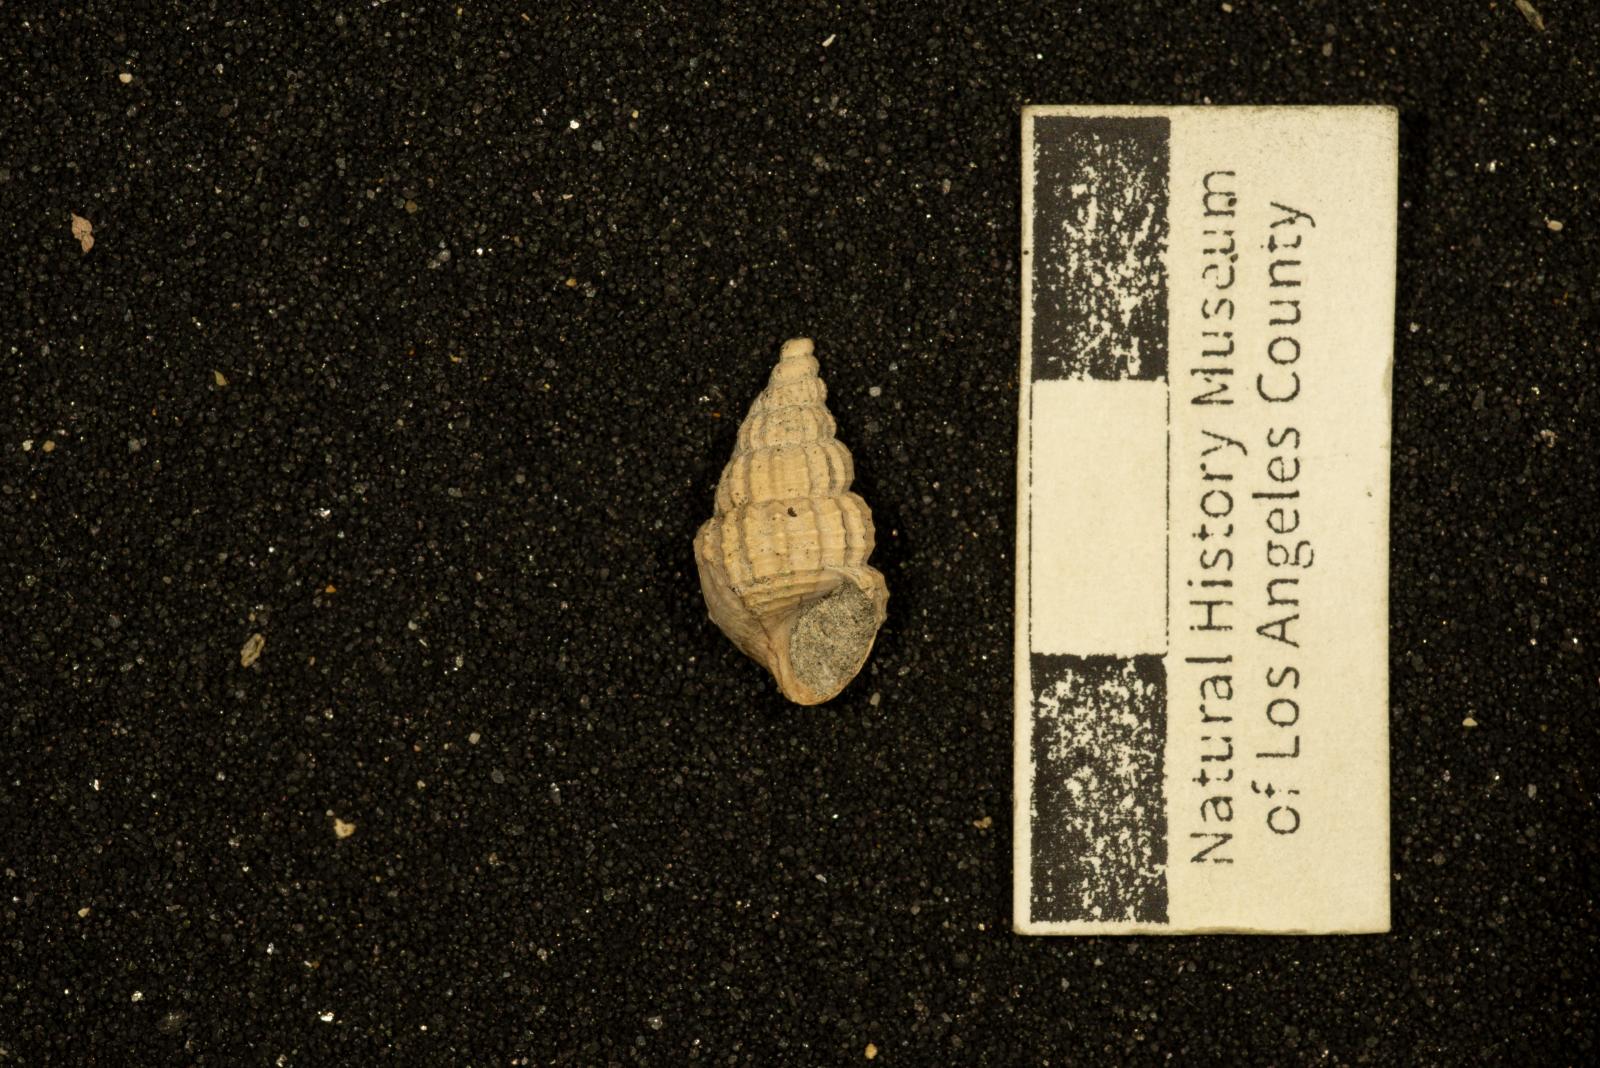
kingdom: Animalia
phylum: Mollusca
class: Gastropoda
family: Epitoniidae
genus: Belliscala
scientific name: Belliscala meta
